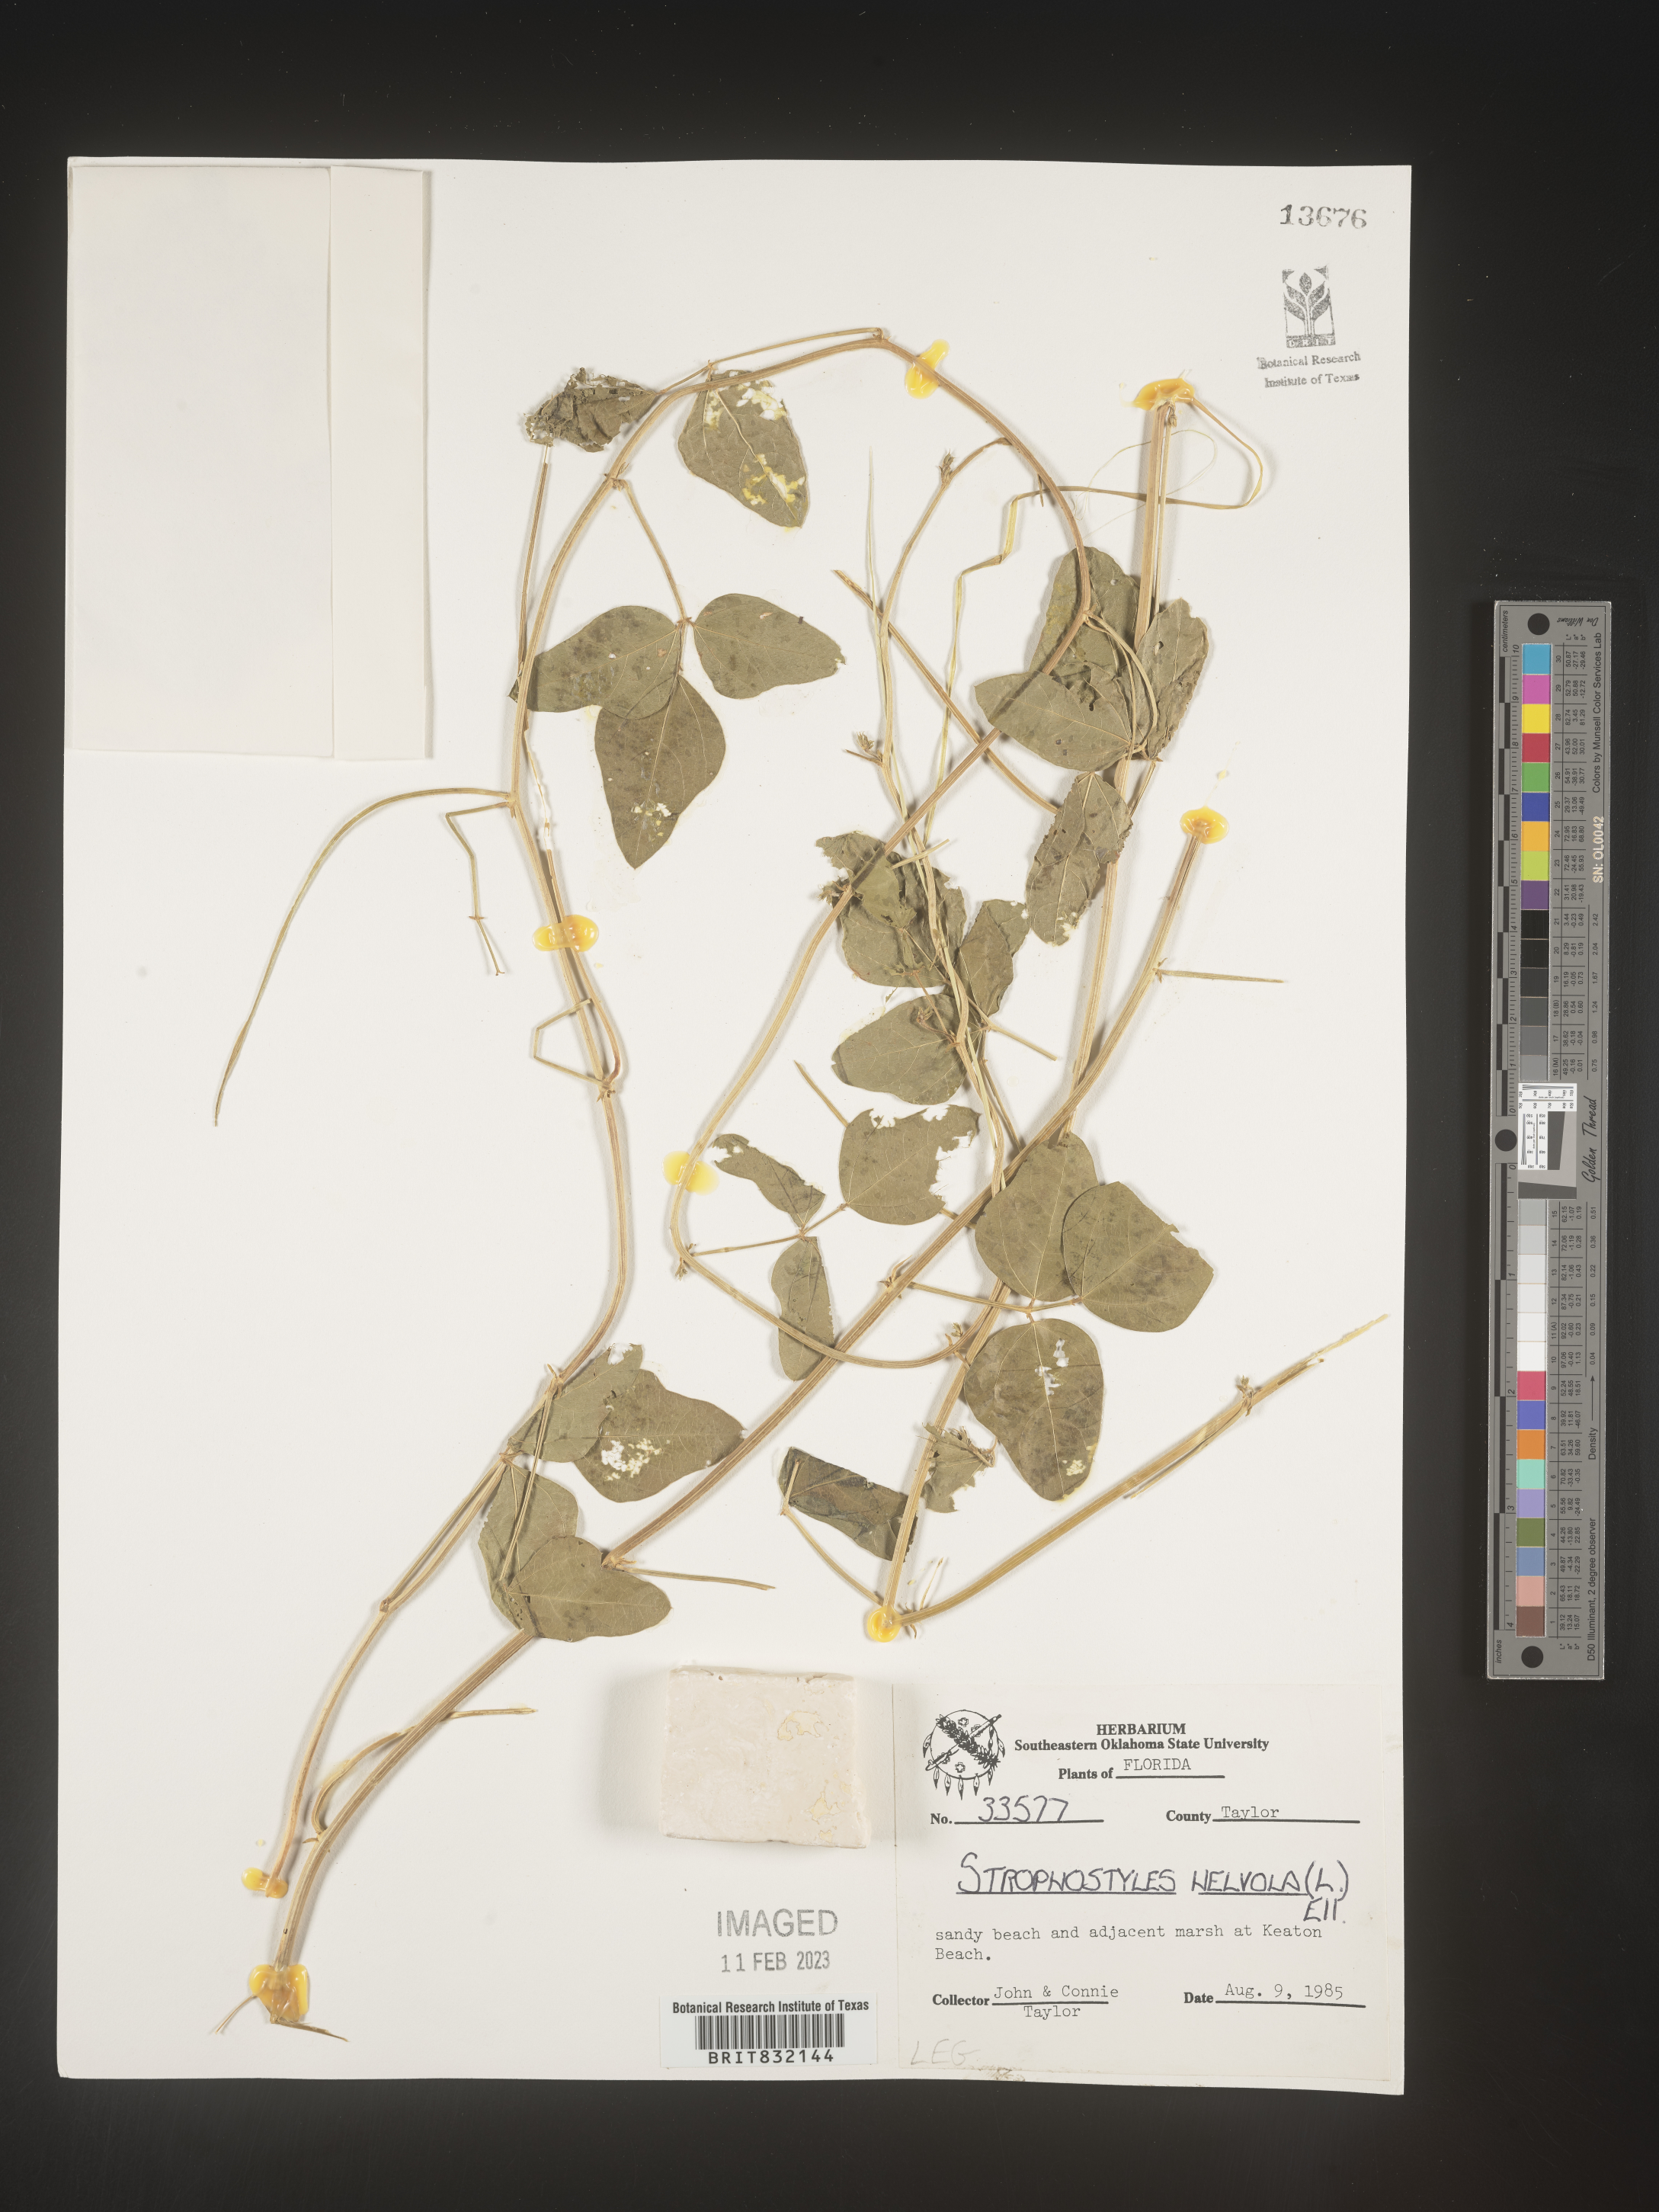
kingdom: Plantae
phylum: Tracheophyta
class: Magnoliopsida
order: Fabales
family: Fabaceae
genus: Strophostyles
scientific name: Strophostyles helvola
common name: Trailing wild bean
